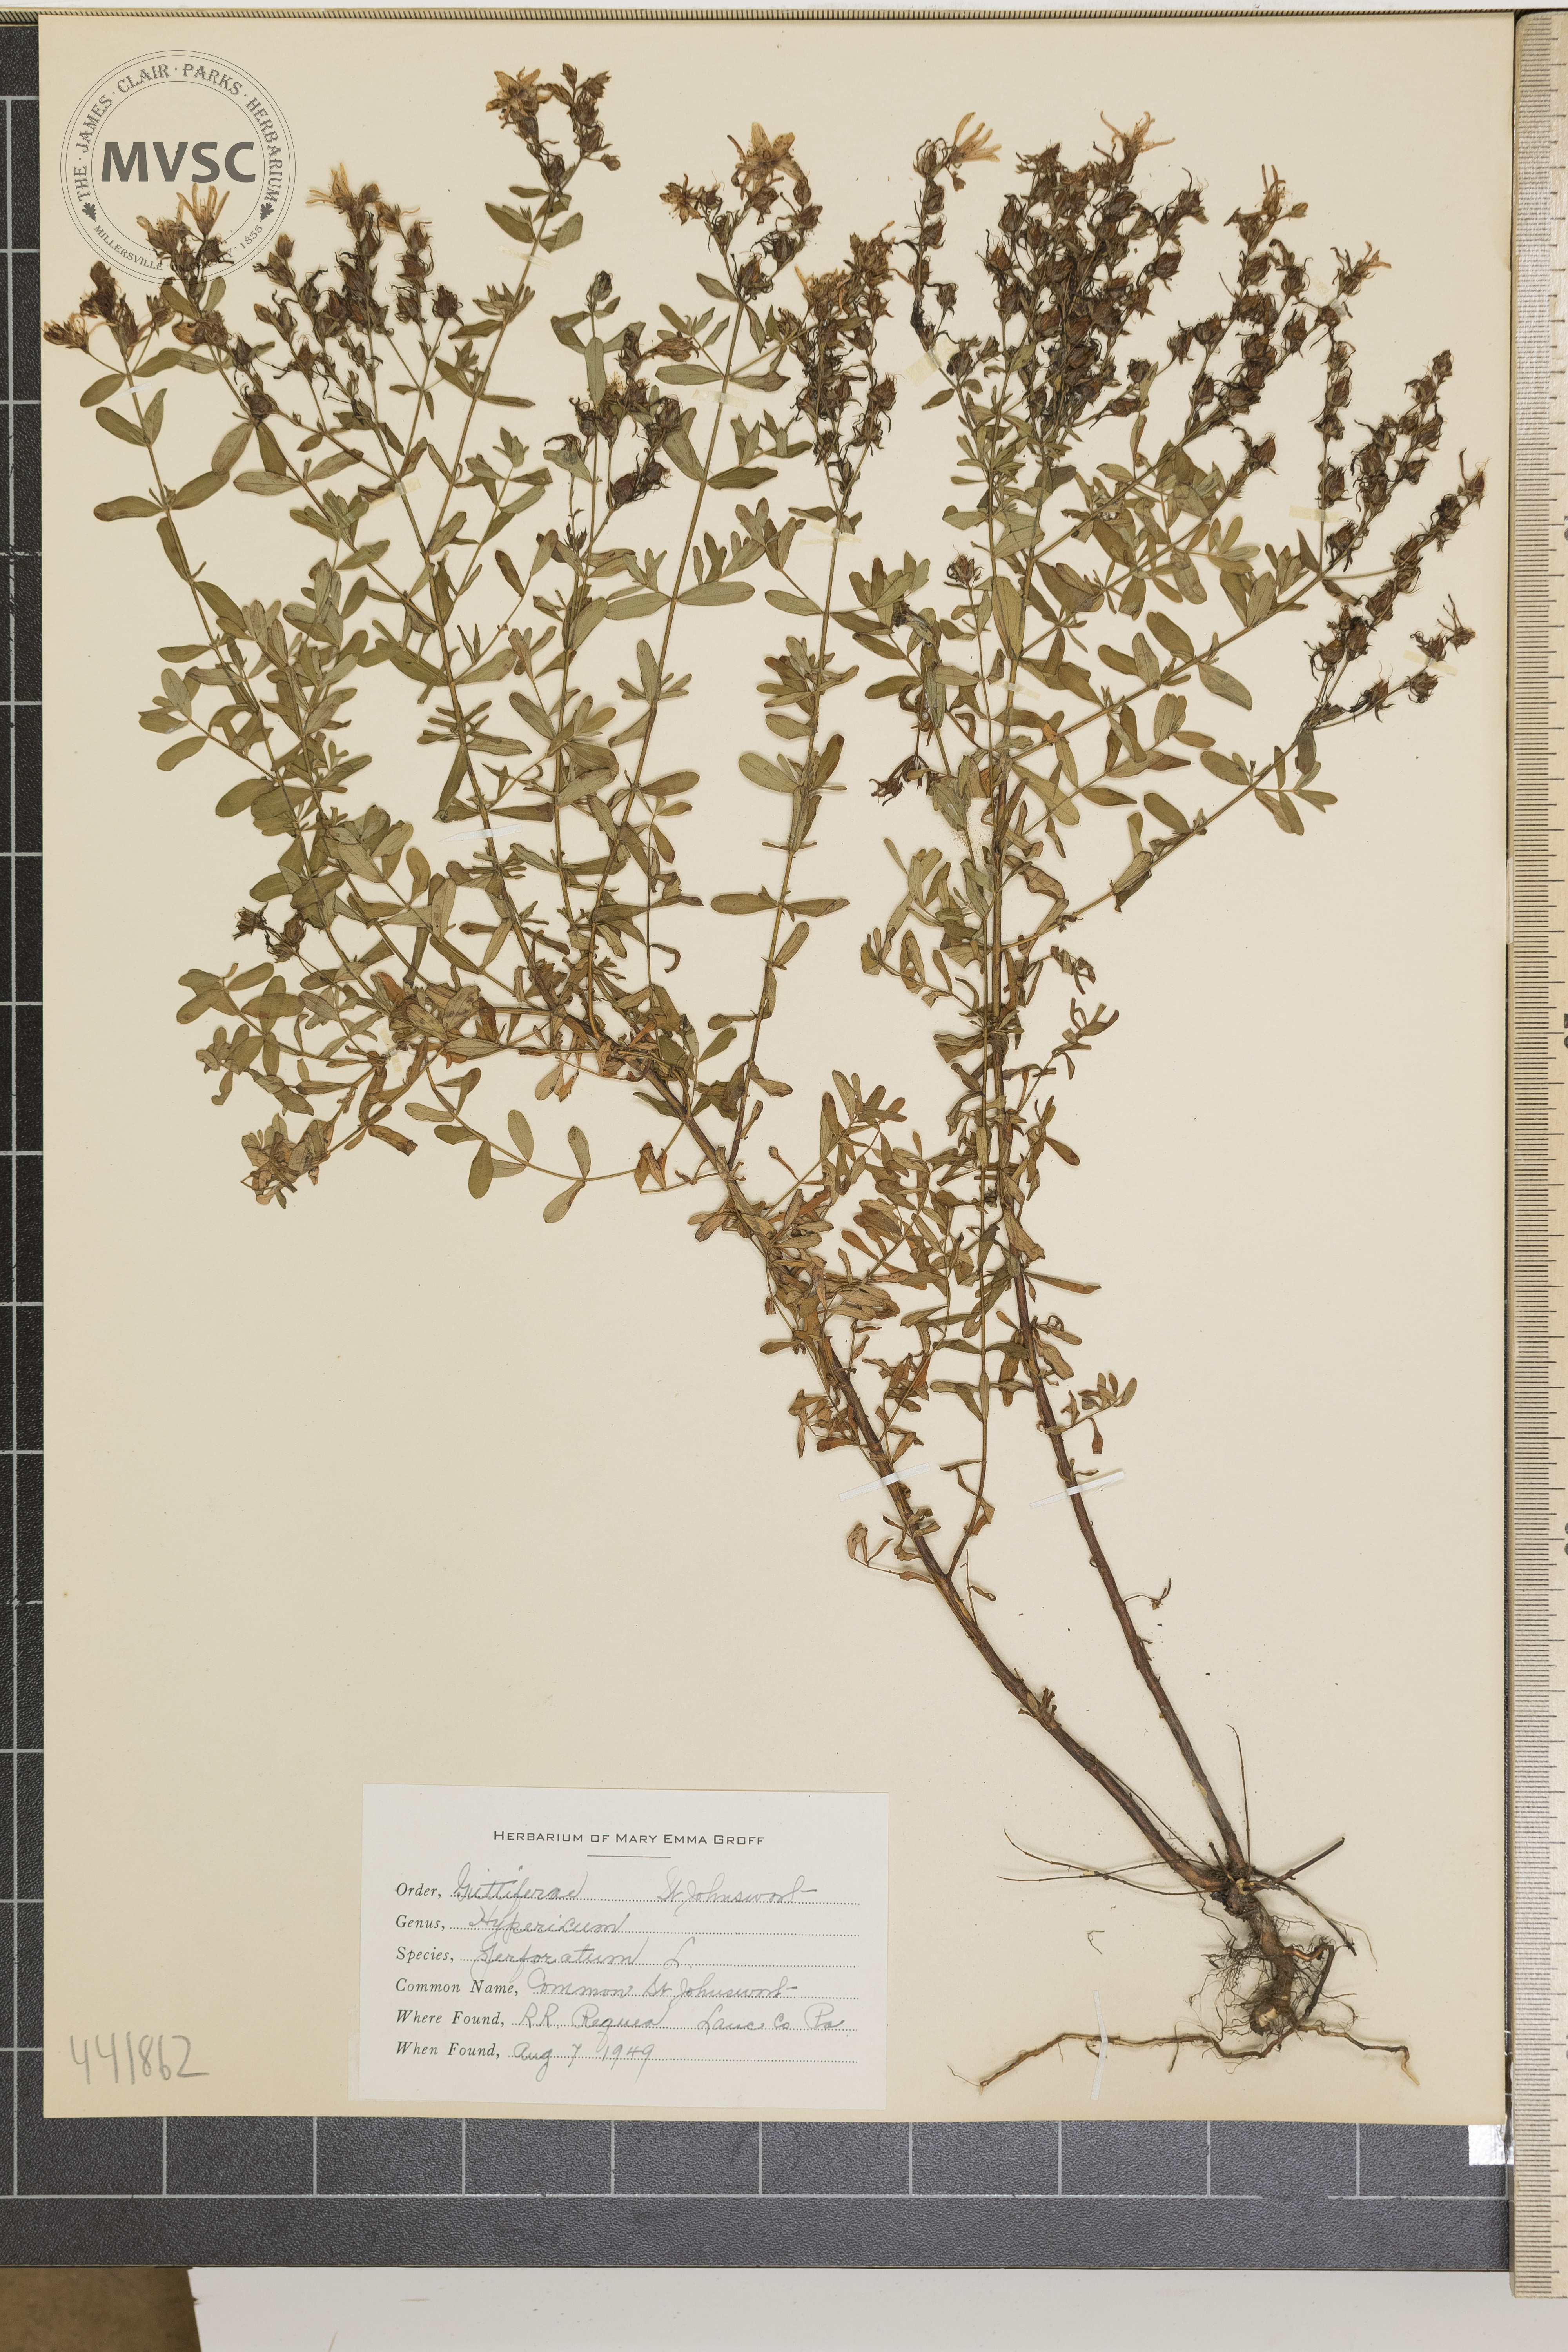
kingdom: Plantae
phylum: Tracheophyta
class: Magnoliopsida
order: Malpighiales
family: Hypericaceae
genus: Hypericum
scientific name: Hypericum perforatum
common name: Common St. Johnswort
